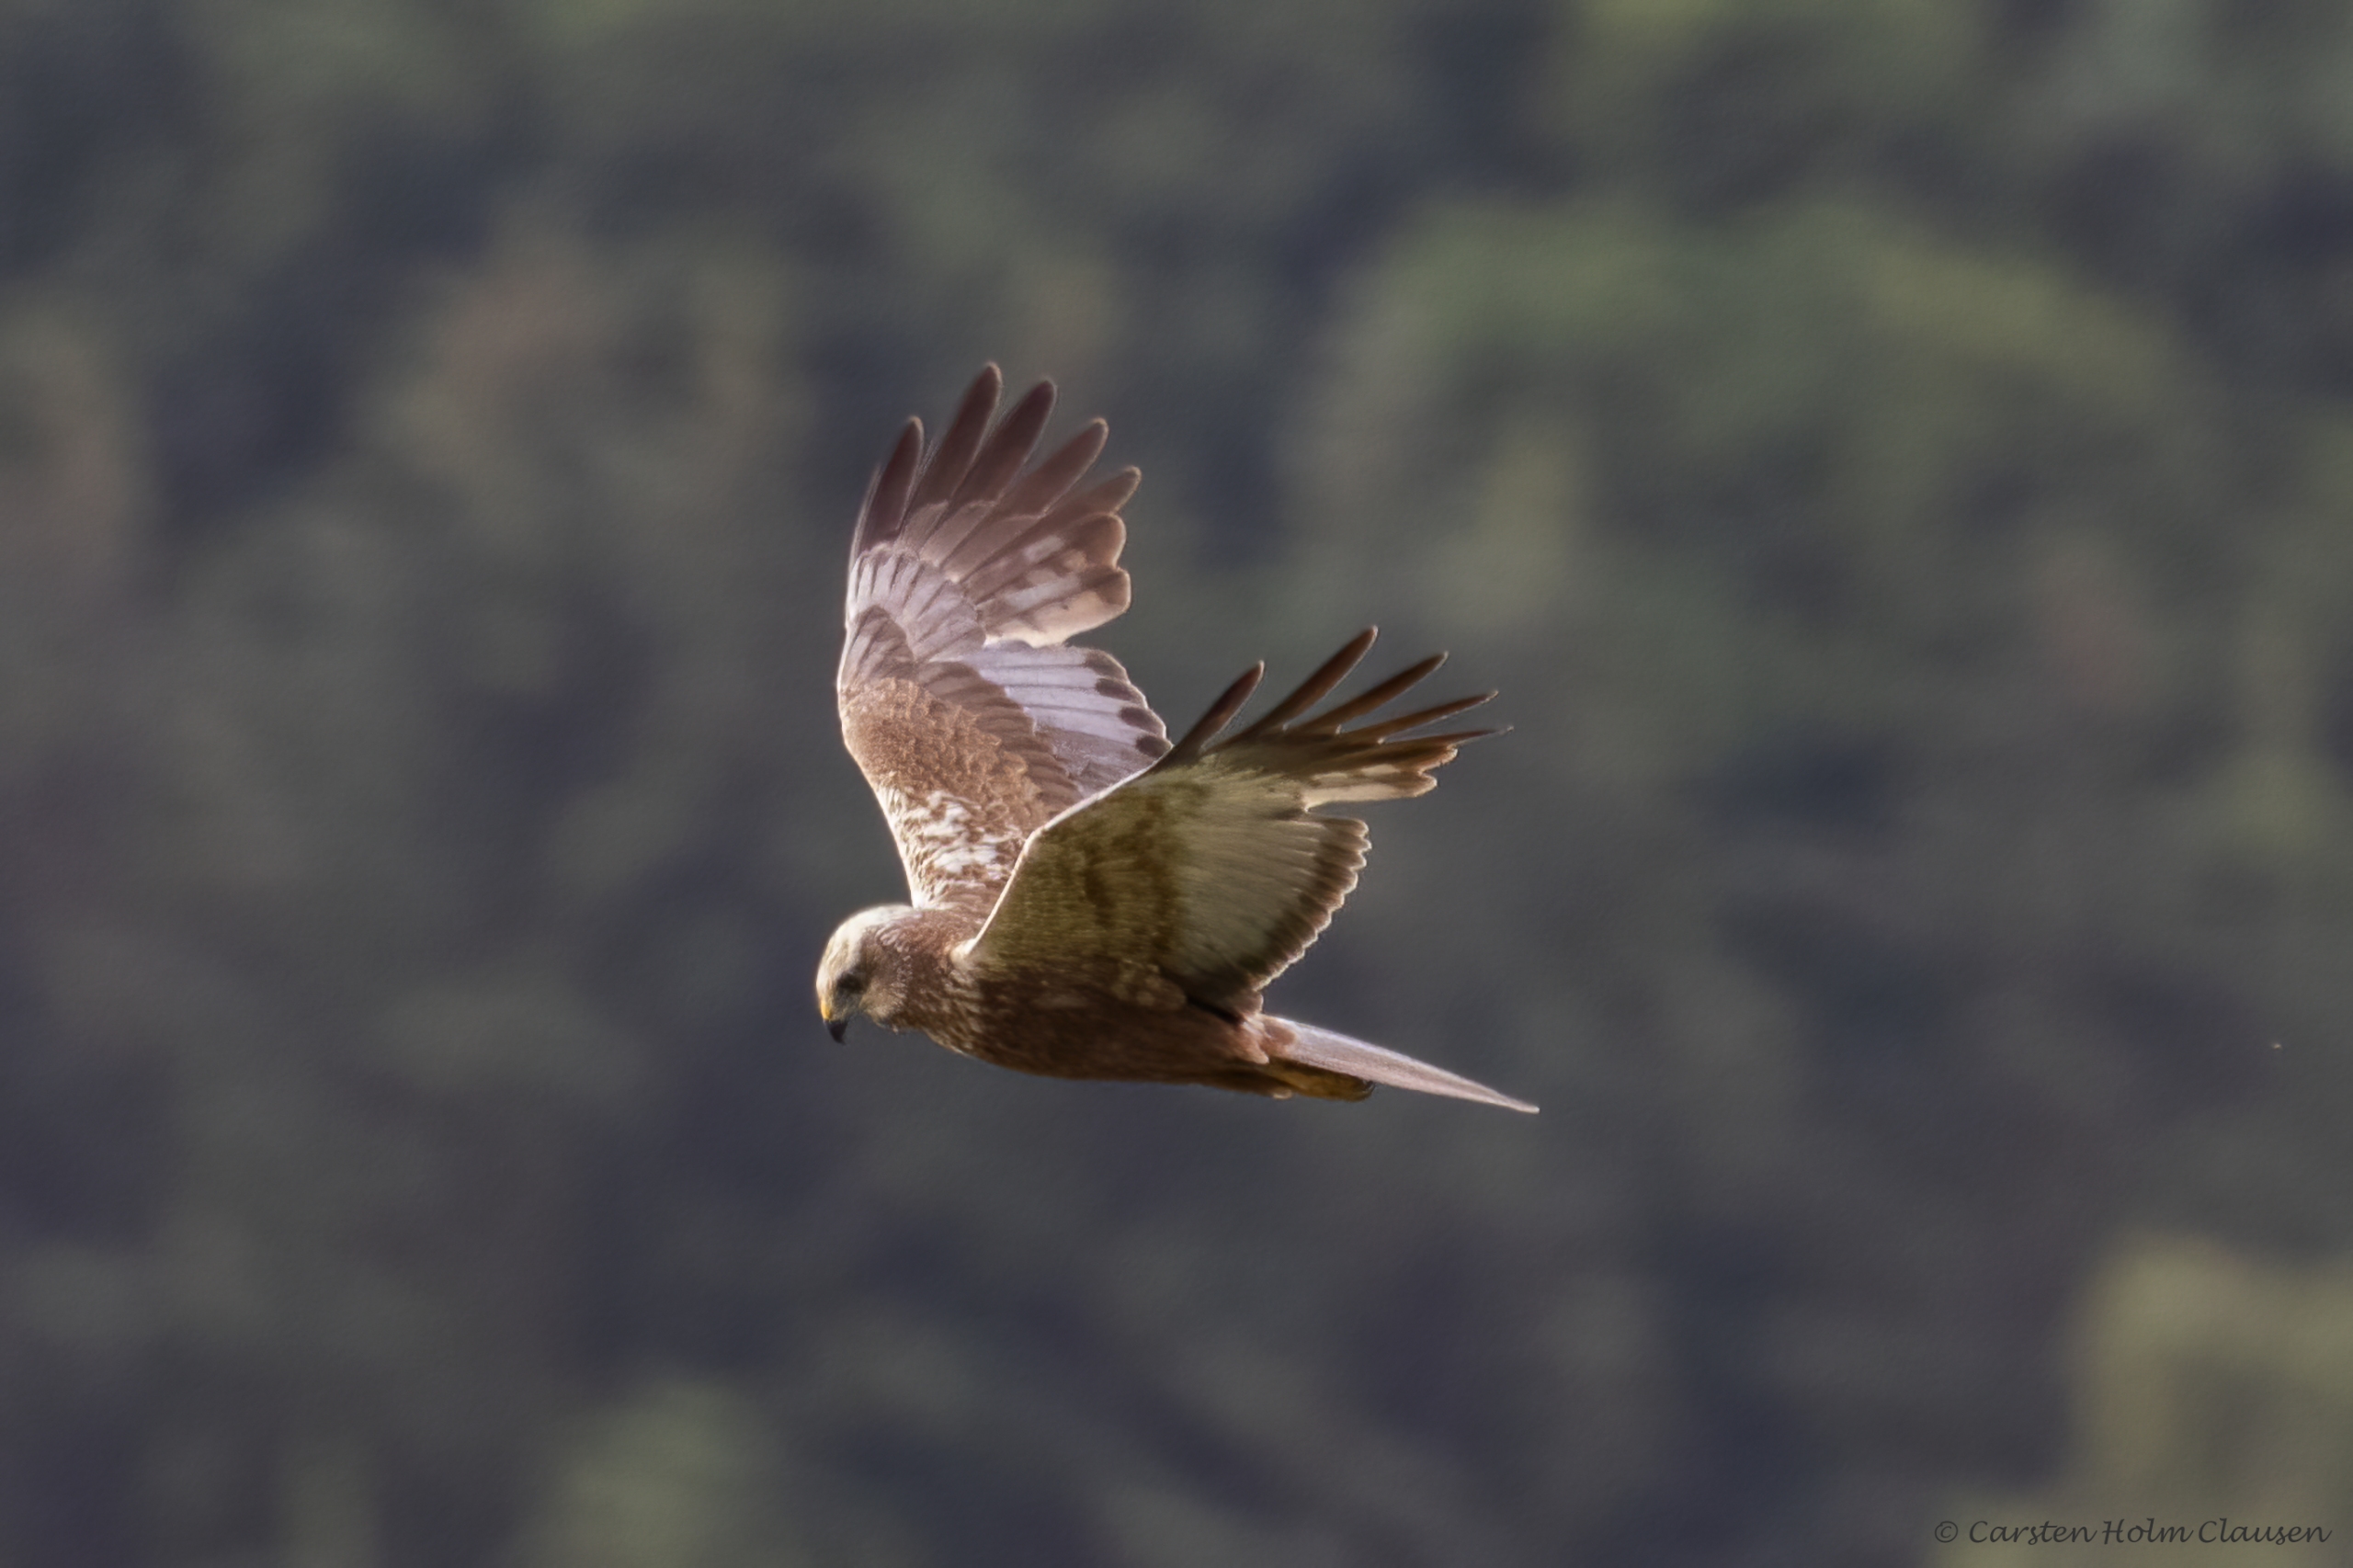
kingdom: Animalia
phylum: Chordata
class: Aves
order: Accipitriformes
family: Accipitridae
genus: Circus
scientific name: Circus aeruginosus
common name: Rørhøg
